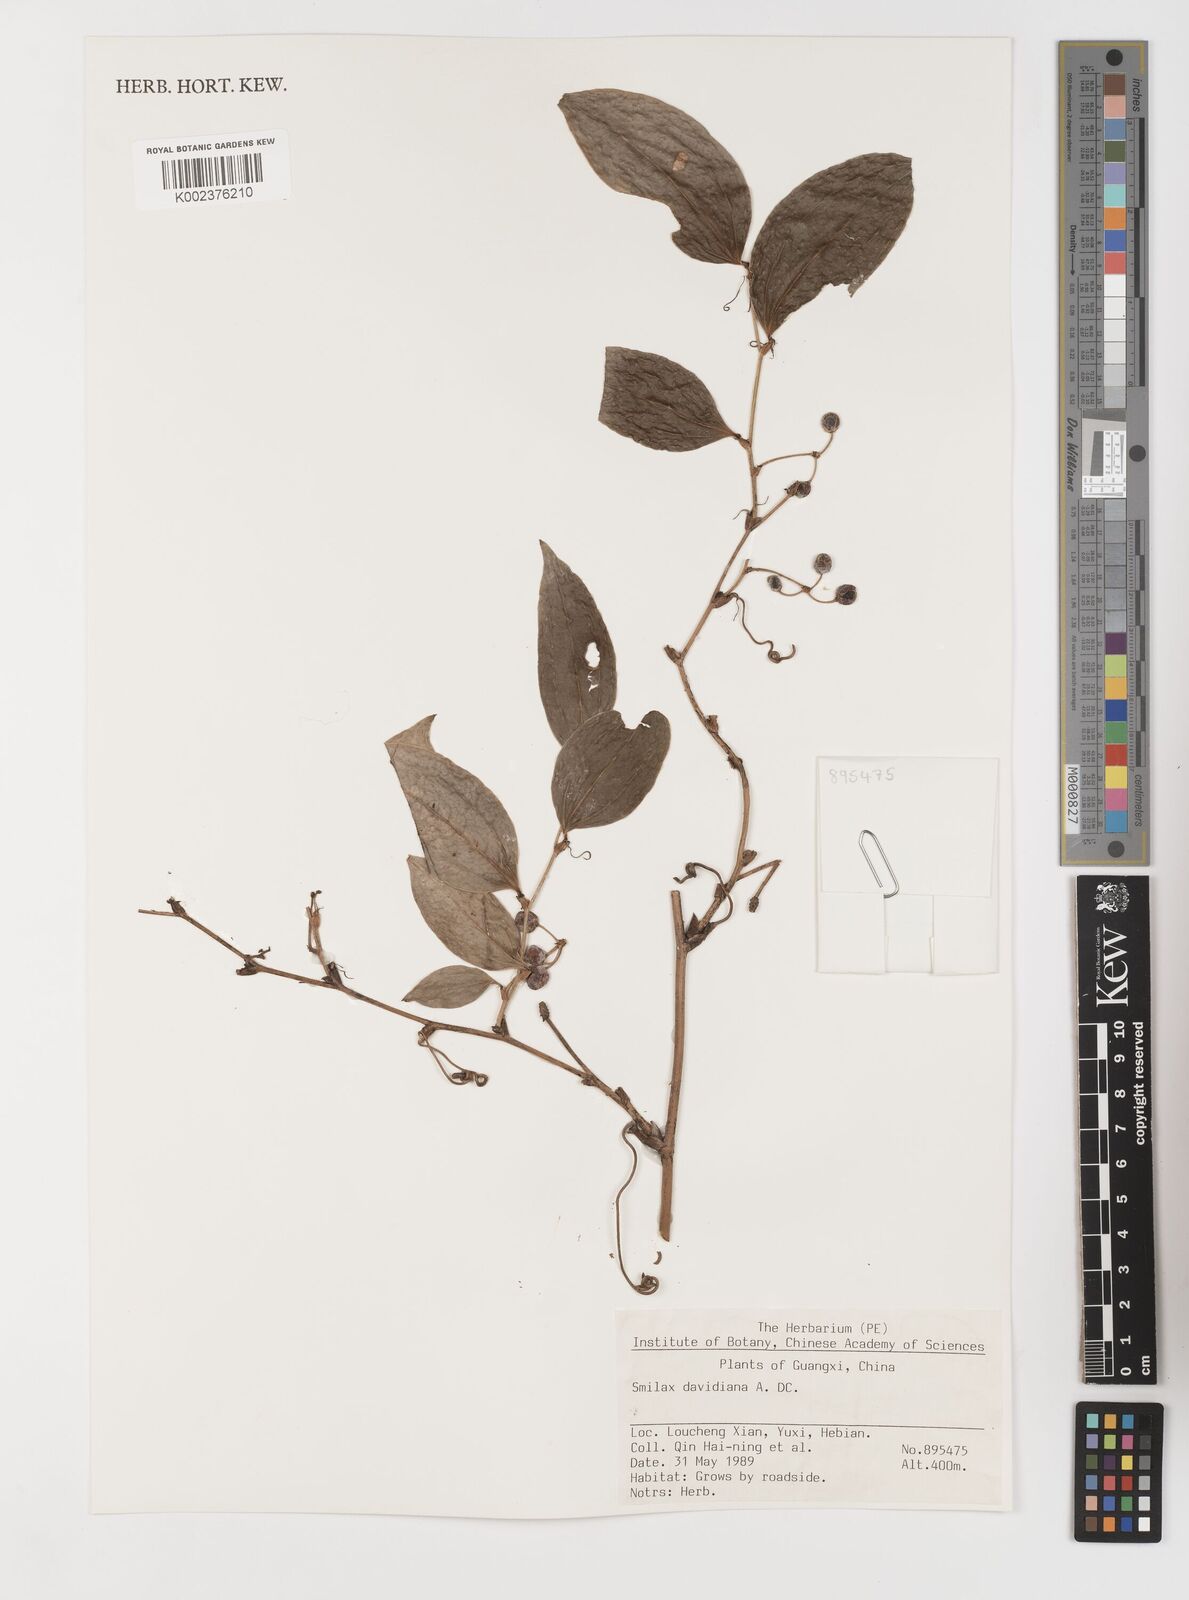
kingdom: Plantae
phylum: Tracheophyta
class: Liliopsida
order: Liliales
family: Smilacaceae
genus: Smilax
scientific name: Smilax davidiana
